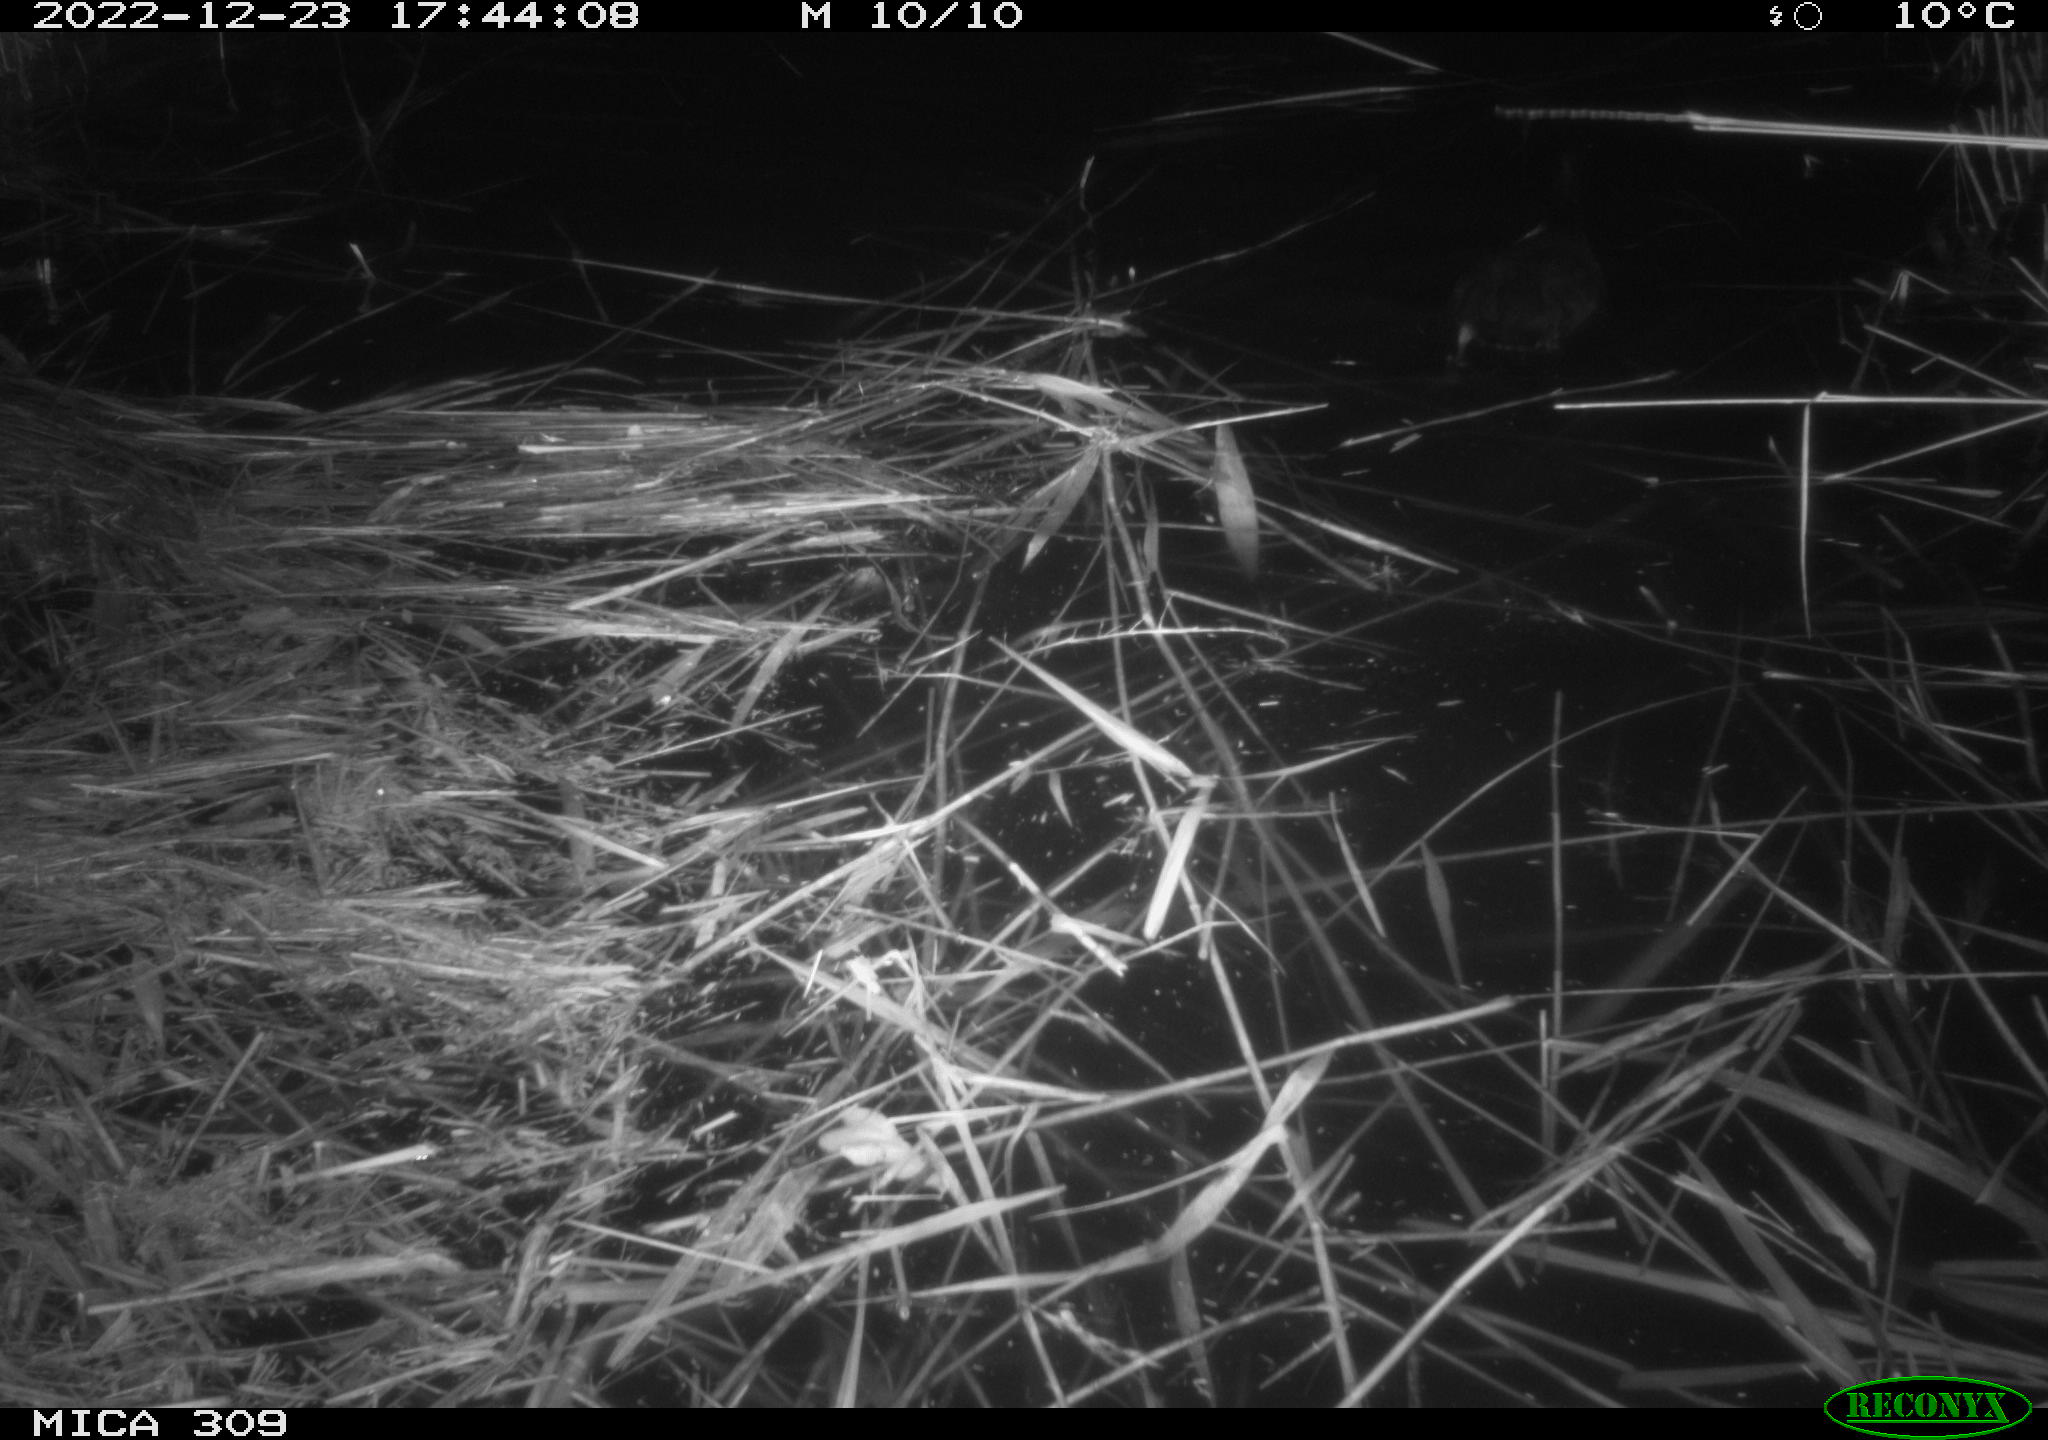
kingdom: Animalia
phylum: Chordata
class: Aves
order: Anseriformes
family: Anatidae
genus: Anas
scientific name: Anas
